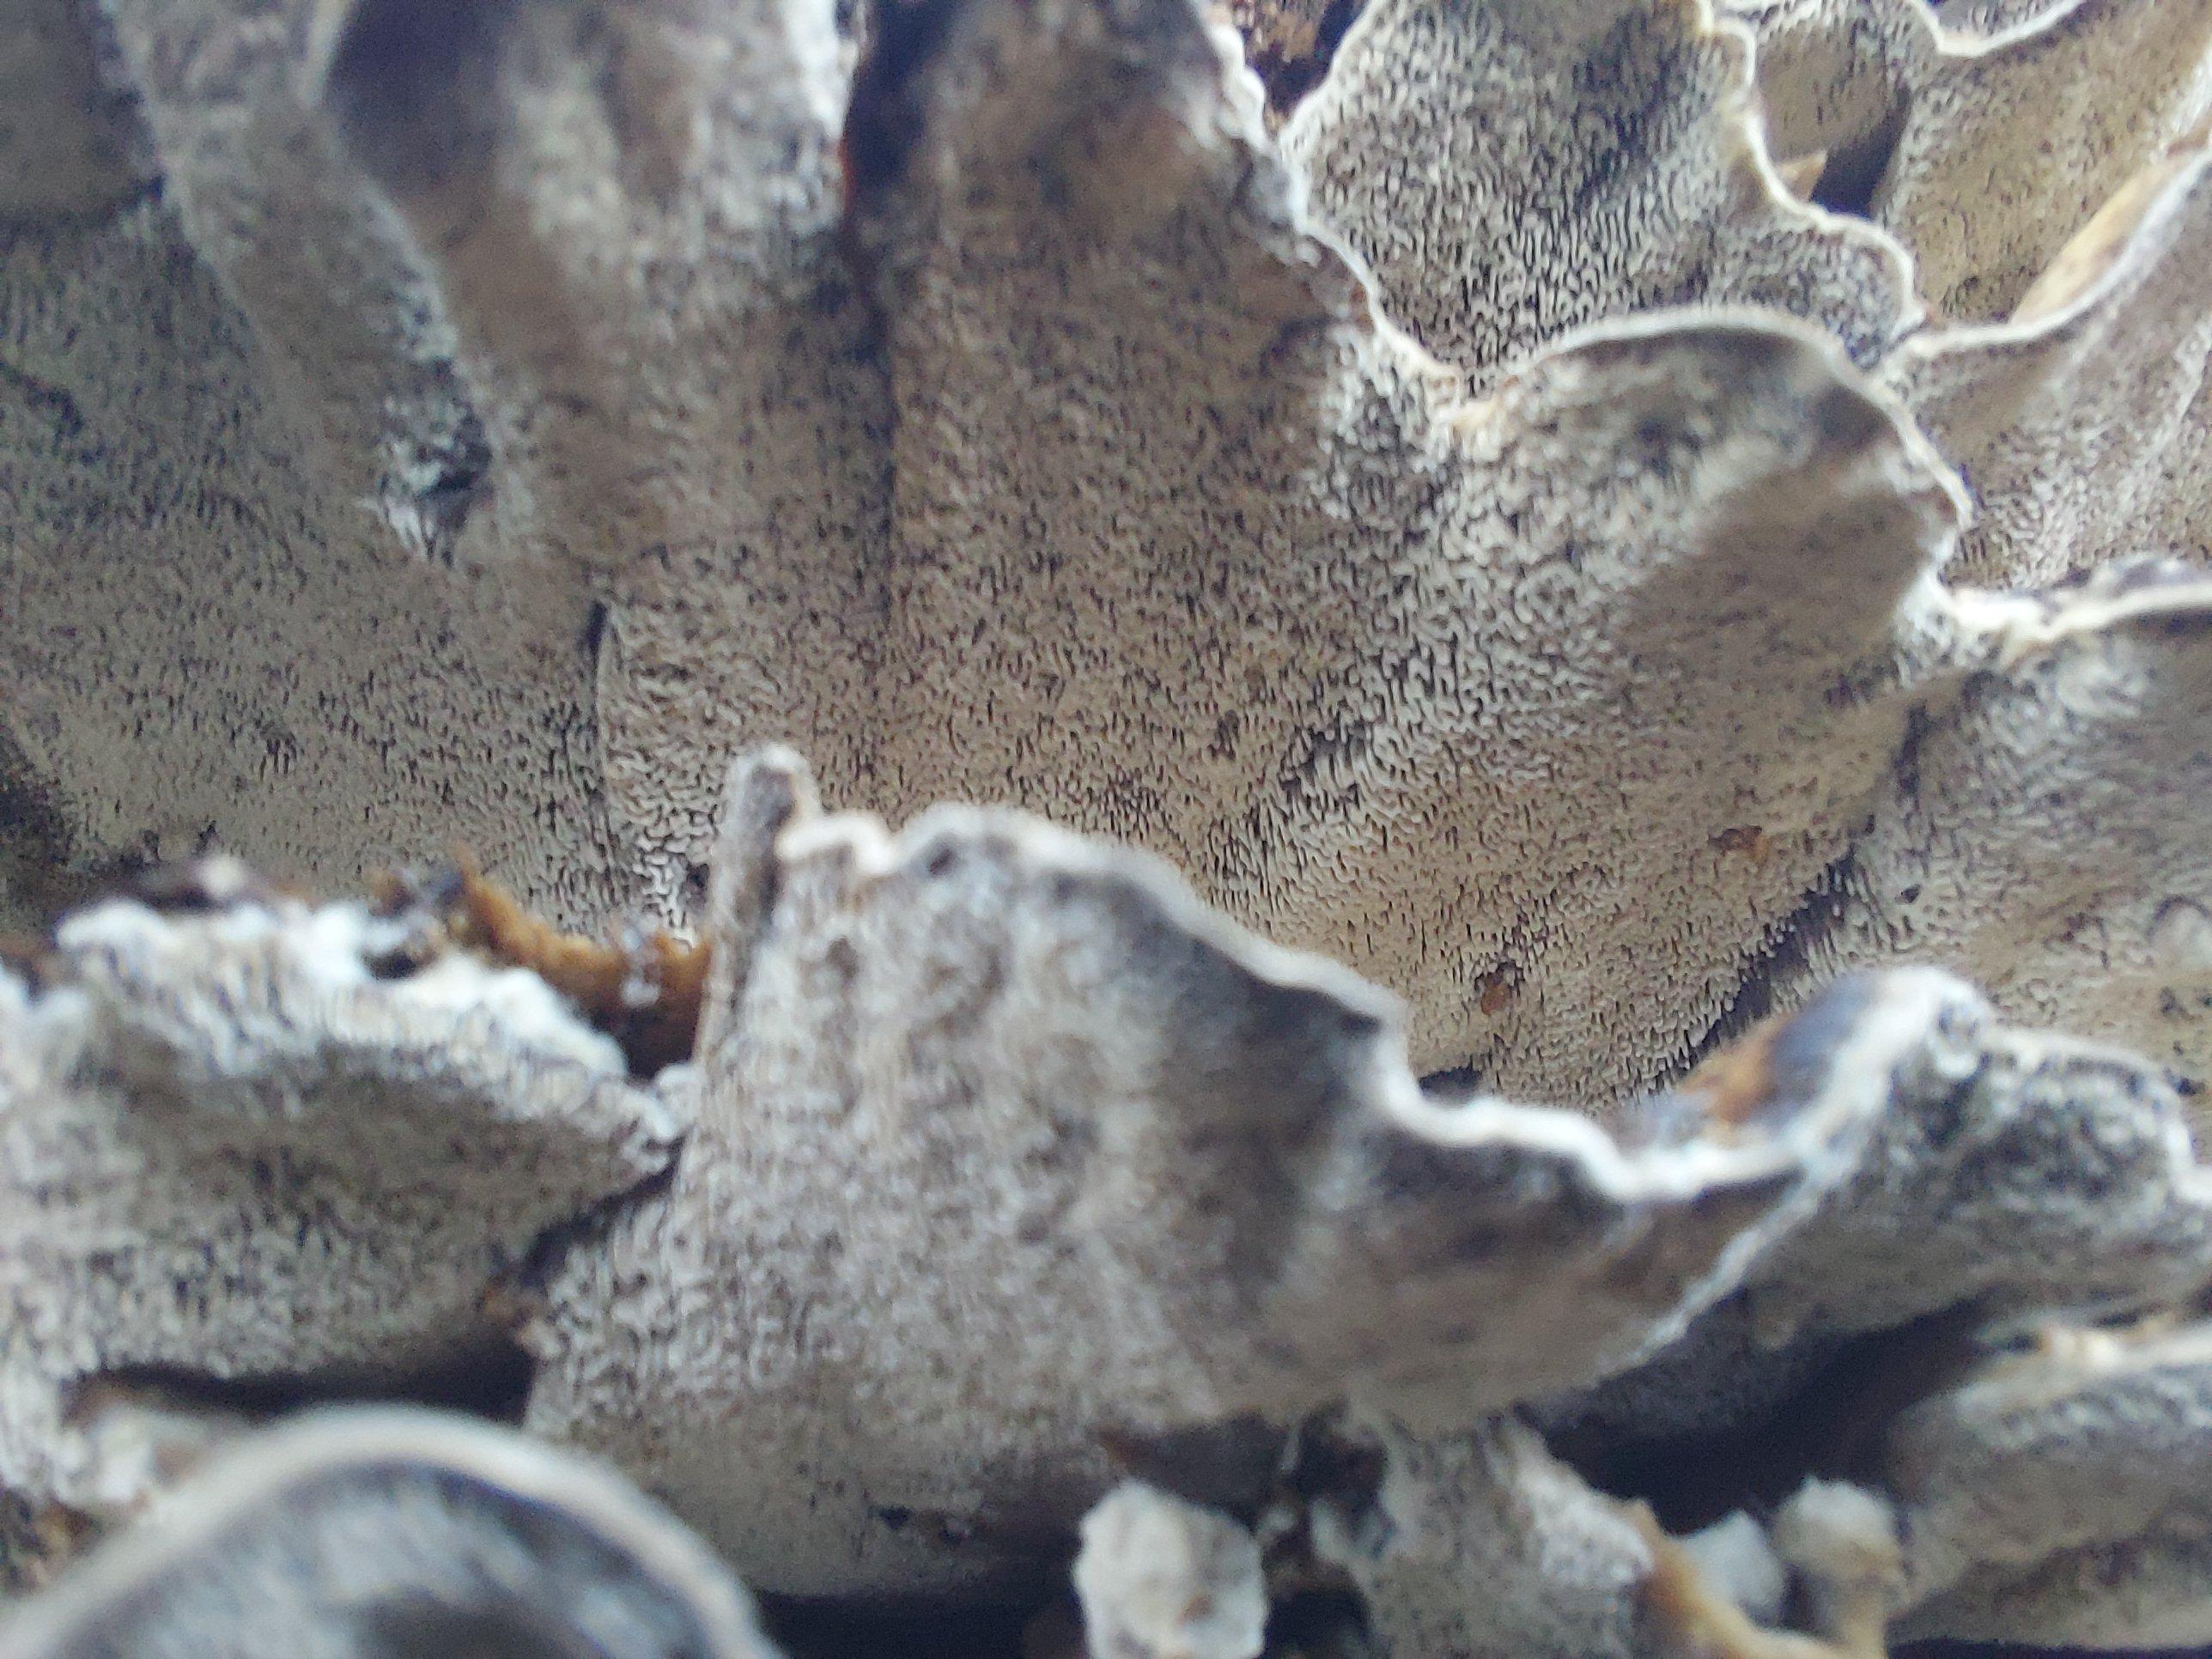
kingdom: Fungi
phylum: Basidiomycota
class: Agaricomycetes
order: Polyporales
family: Phanerochaetaceae
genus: Bjerkandera
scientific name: Bjerkandera adusta
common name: sveden sodporesvamp
